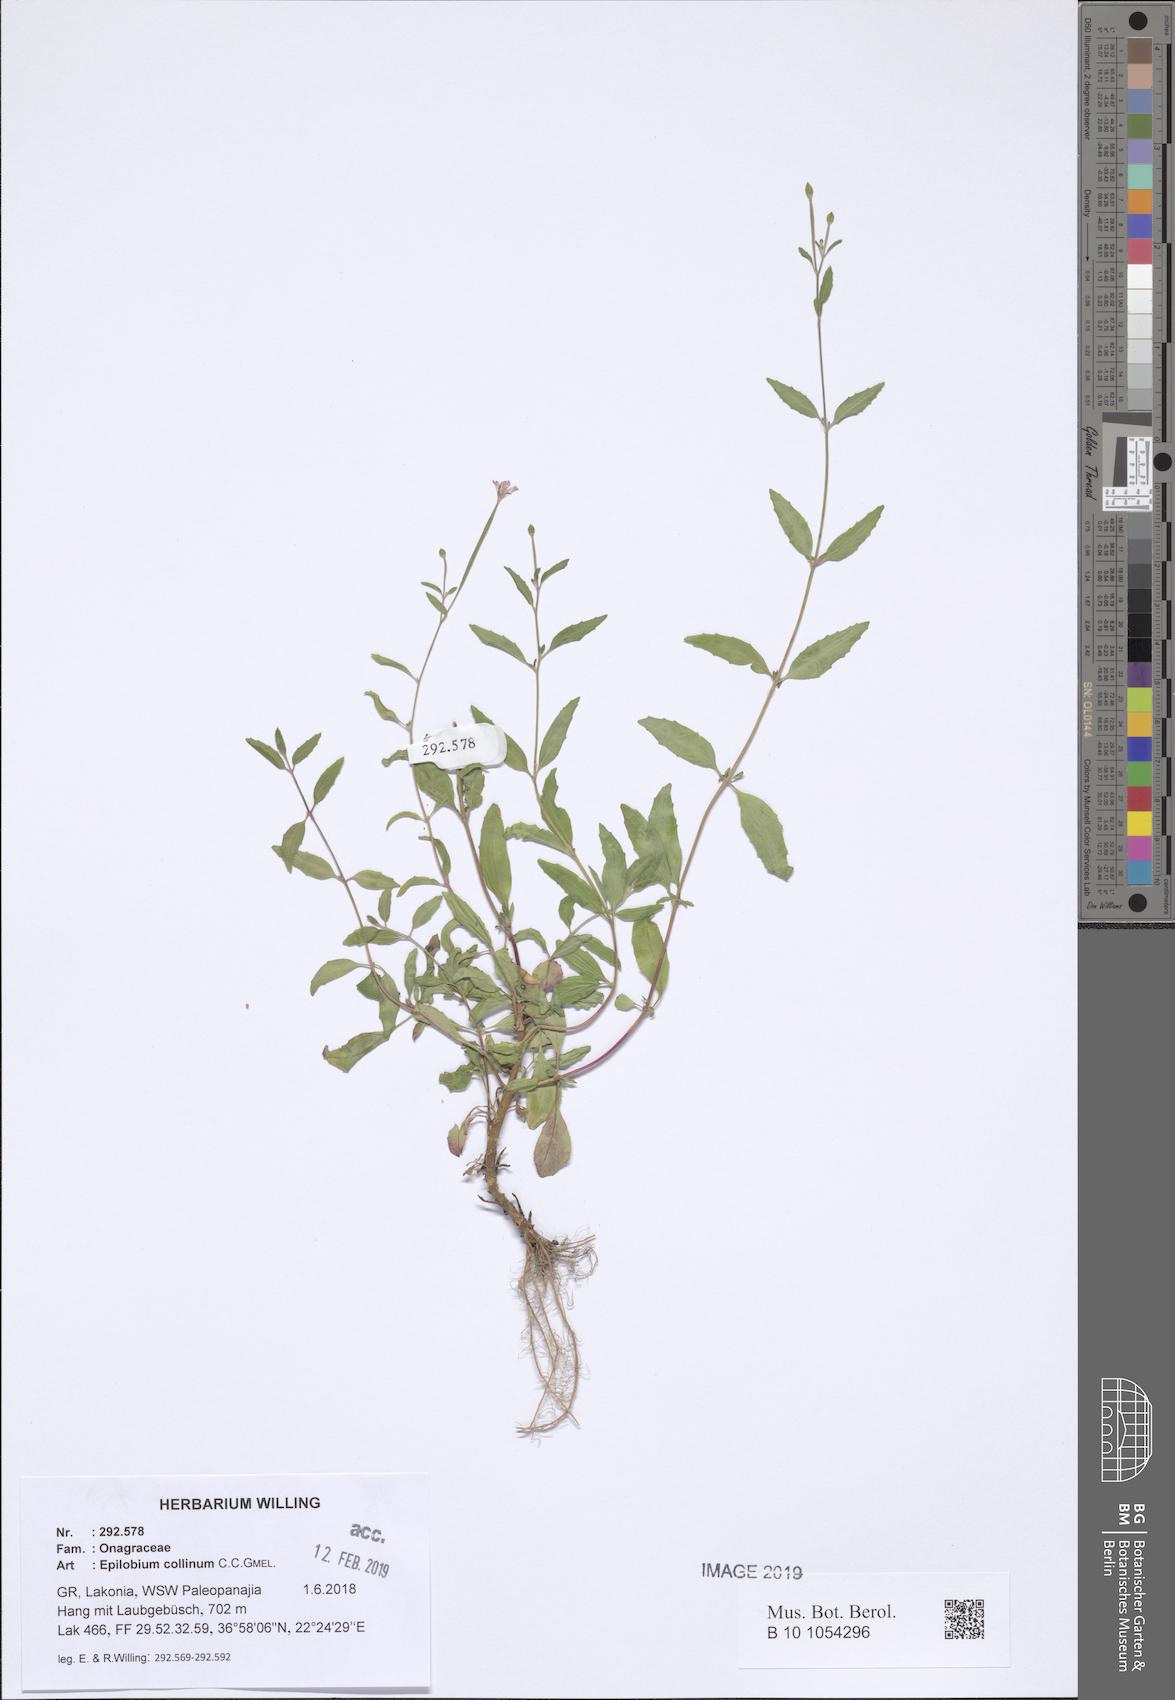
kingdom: Plantae
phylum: Tracheophyta
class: Magnoliopsida
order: Myrtales
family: Onagraceae
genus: Epilobium
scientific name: Epilobium lanceolatum
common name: Spear-leaved willowherb
